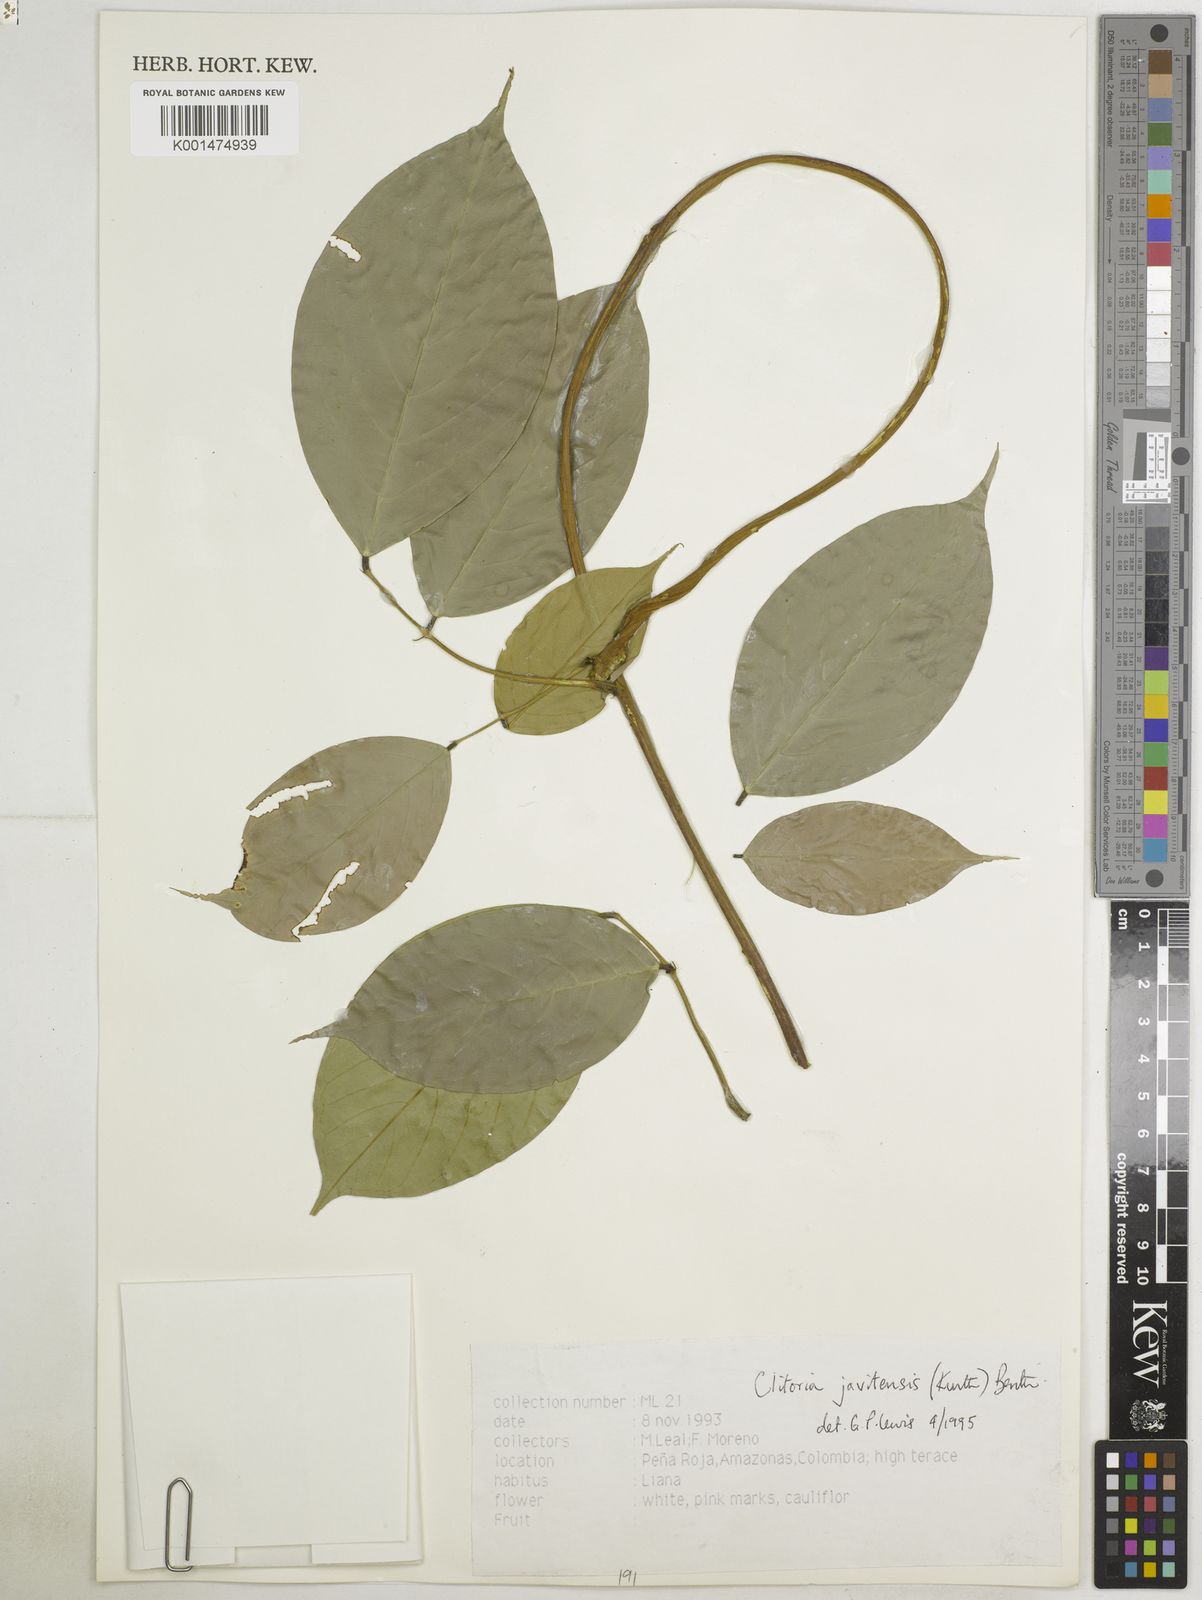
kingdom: Plantae
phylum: Tracheophyta
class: Magnoliopsida
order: Fabales
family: Fabaceae
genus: Clitoria
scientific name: Clitoria javitensis
